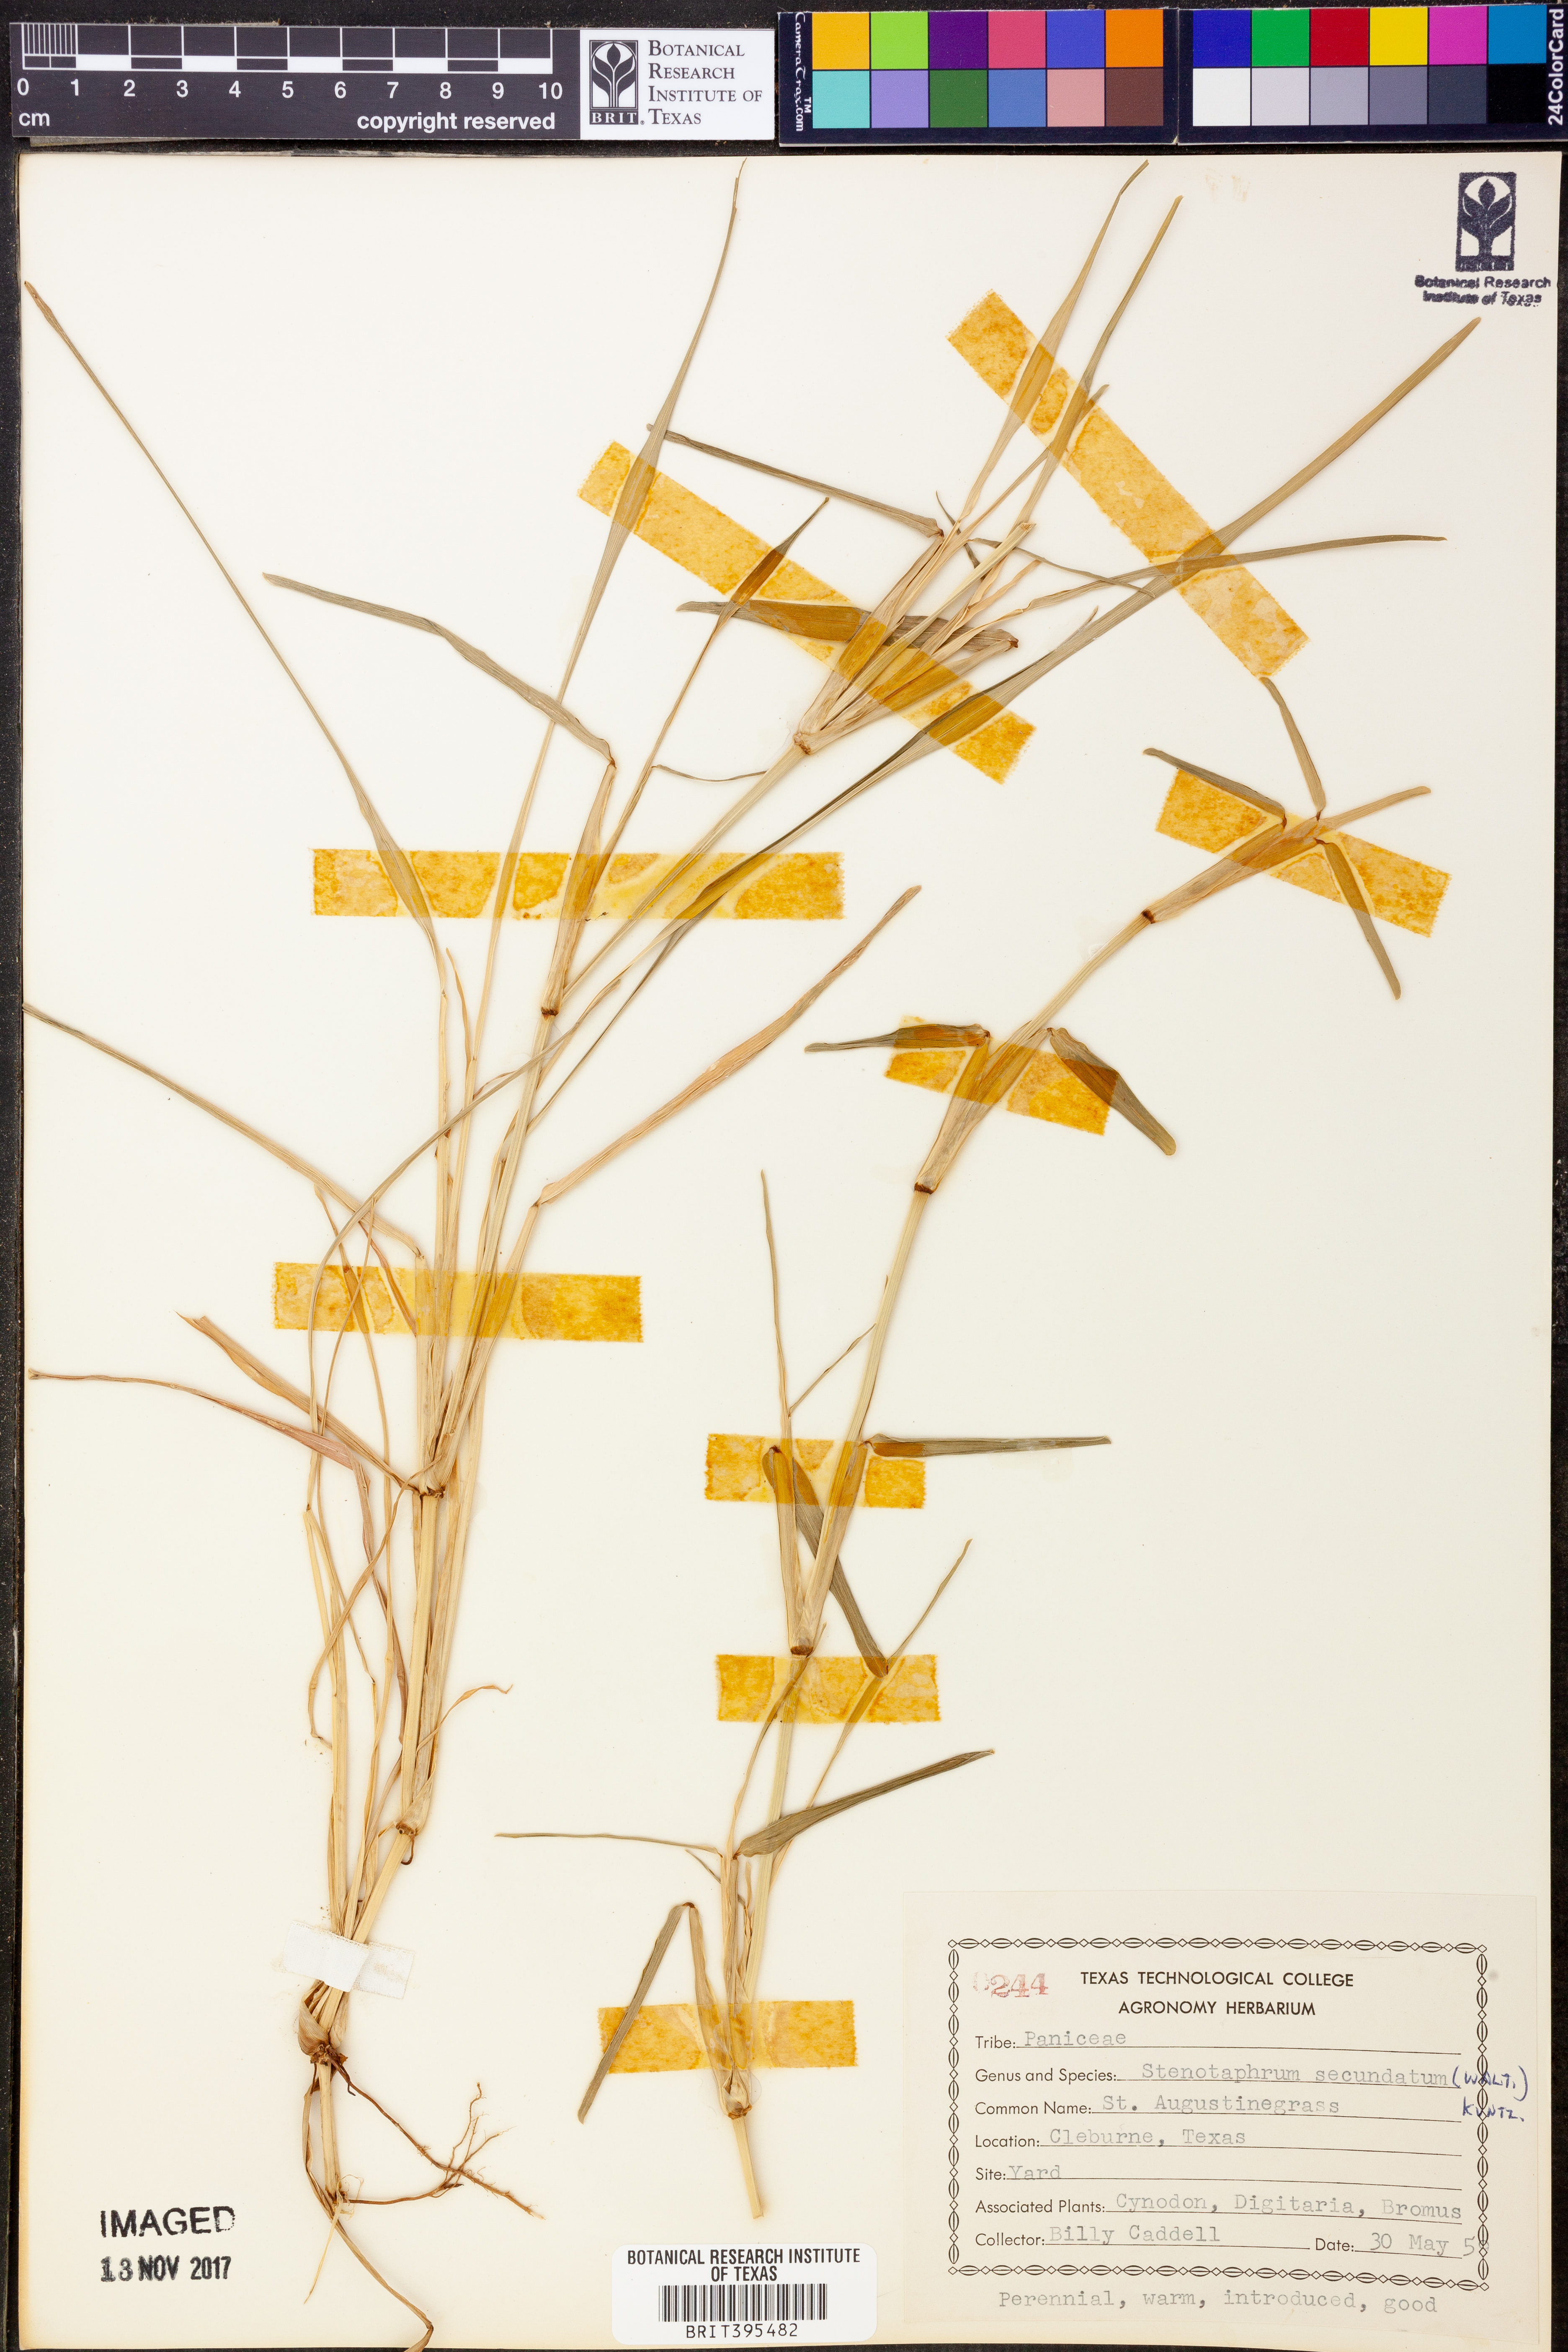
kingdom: Plantae
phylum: Tracheophyta
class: Liliopsida
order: Poales
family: Poaceae
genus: Stenotaphrum
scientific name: Stenotaphrum secundatum
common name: St. augustine grass
